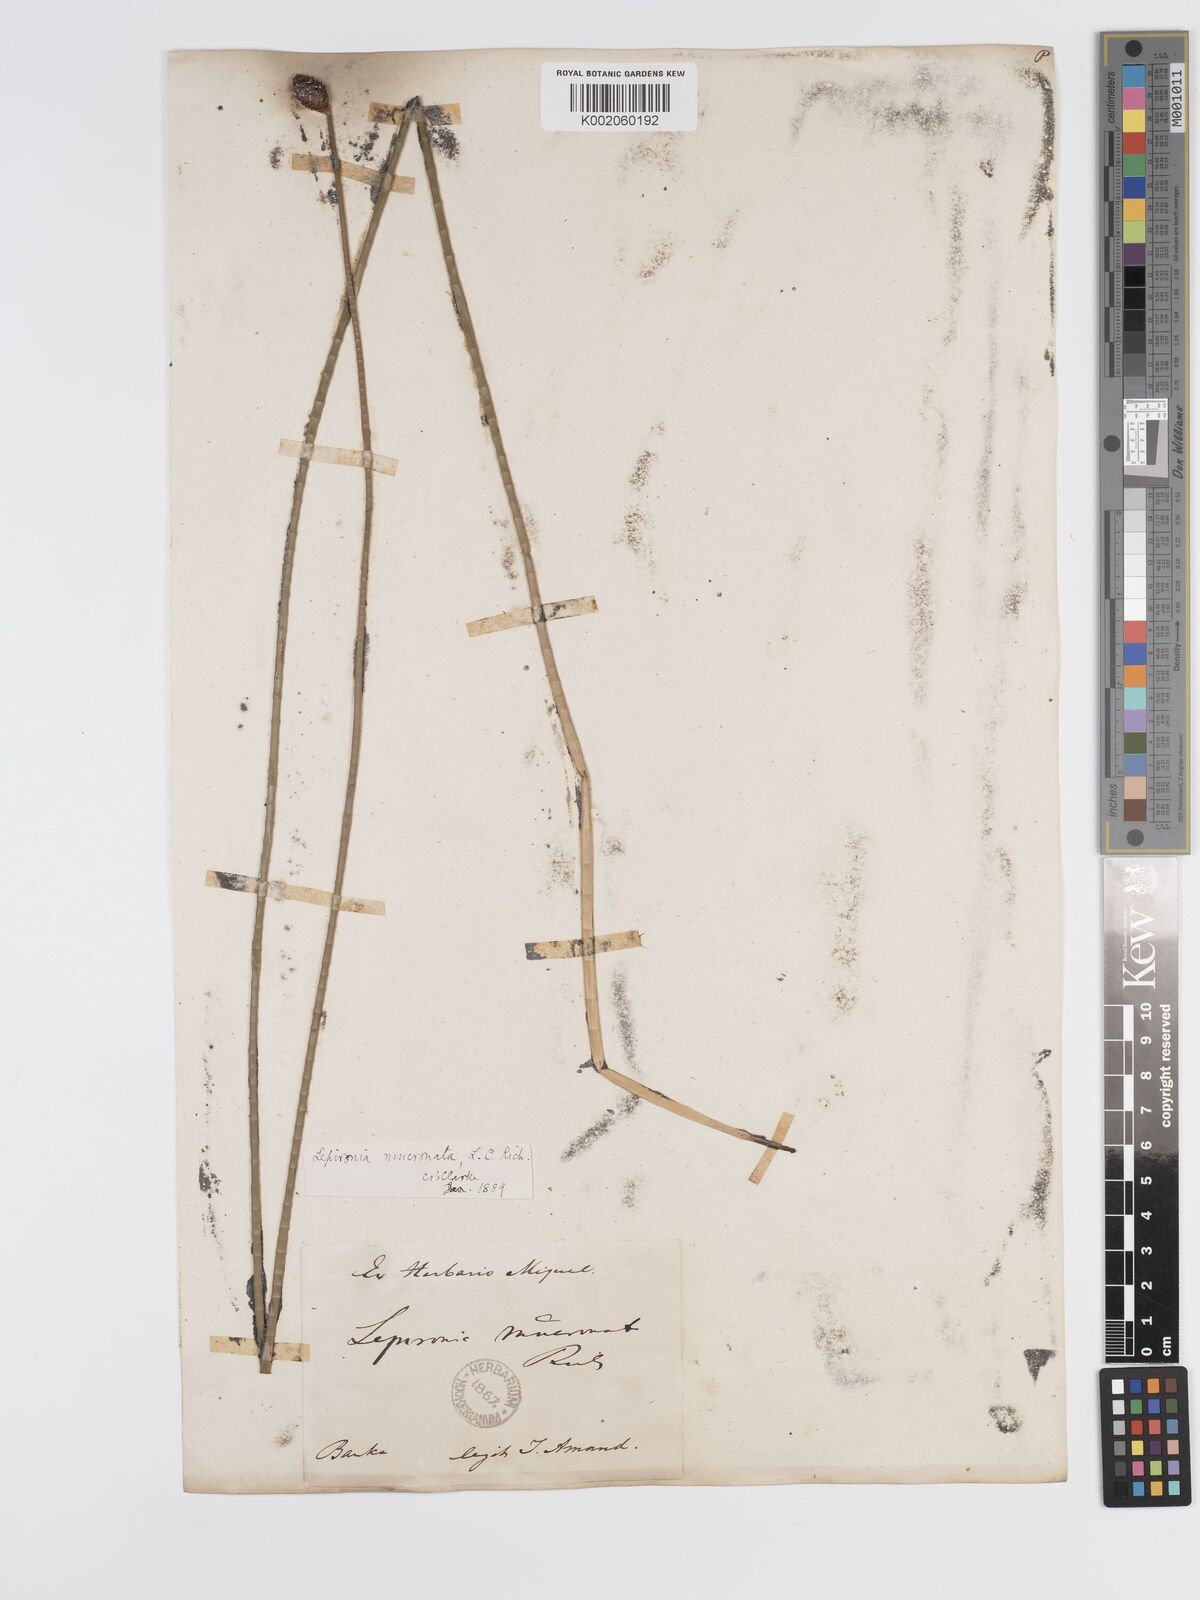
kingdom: Plantae
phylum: Tracheophyta
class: Liliopsida
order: Poales
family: Cyperaceae
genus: Lepironia
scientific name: Lepironia articulata
